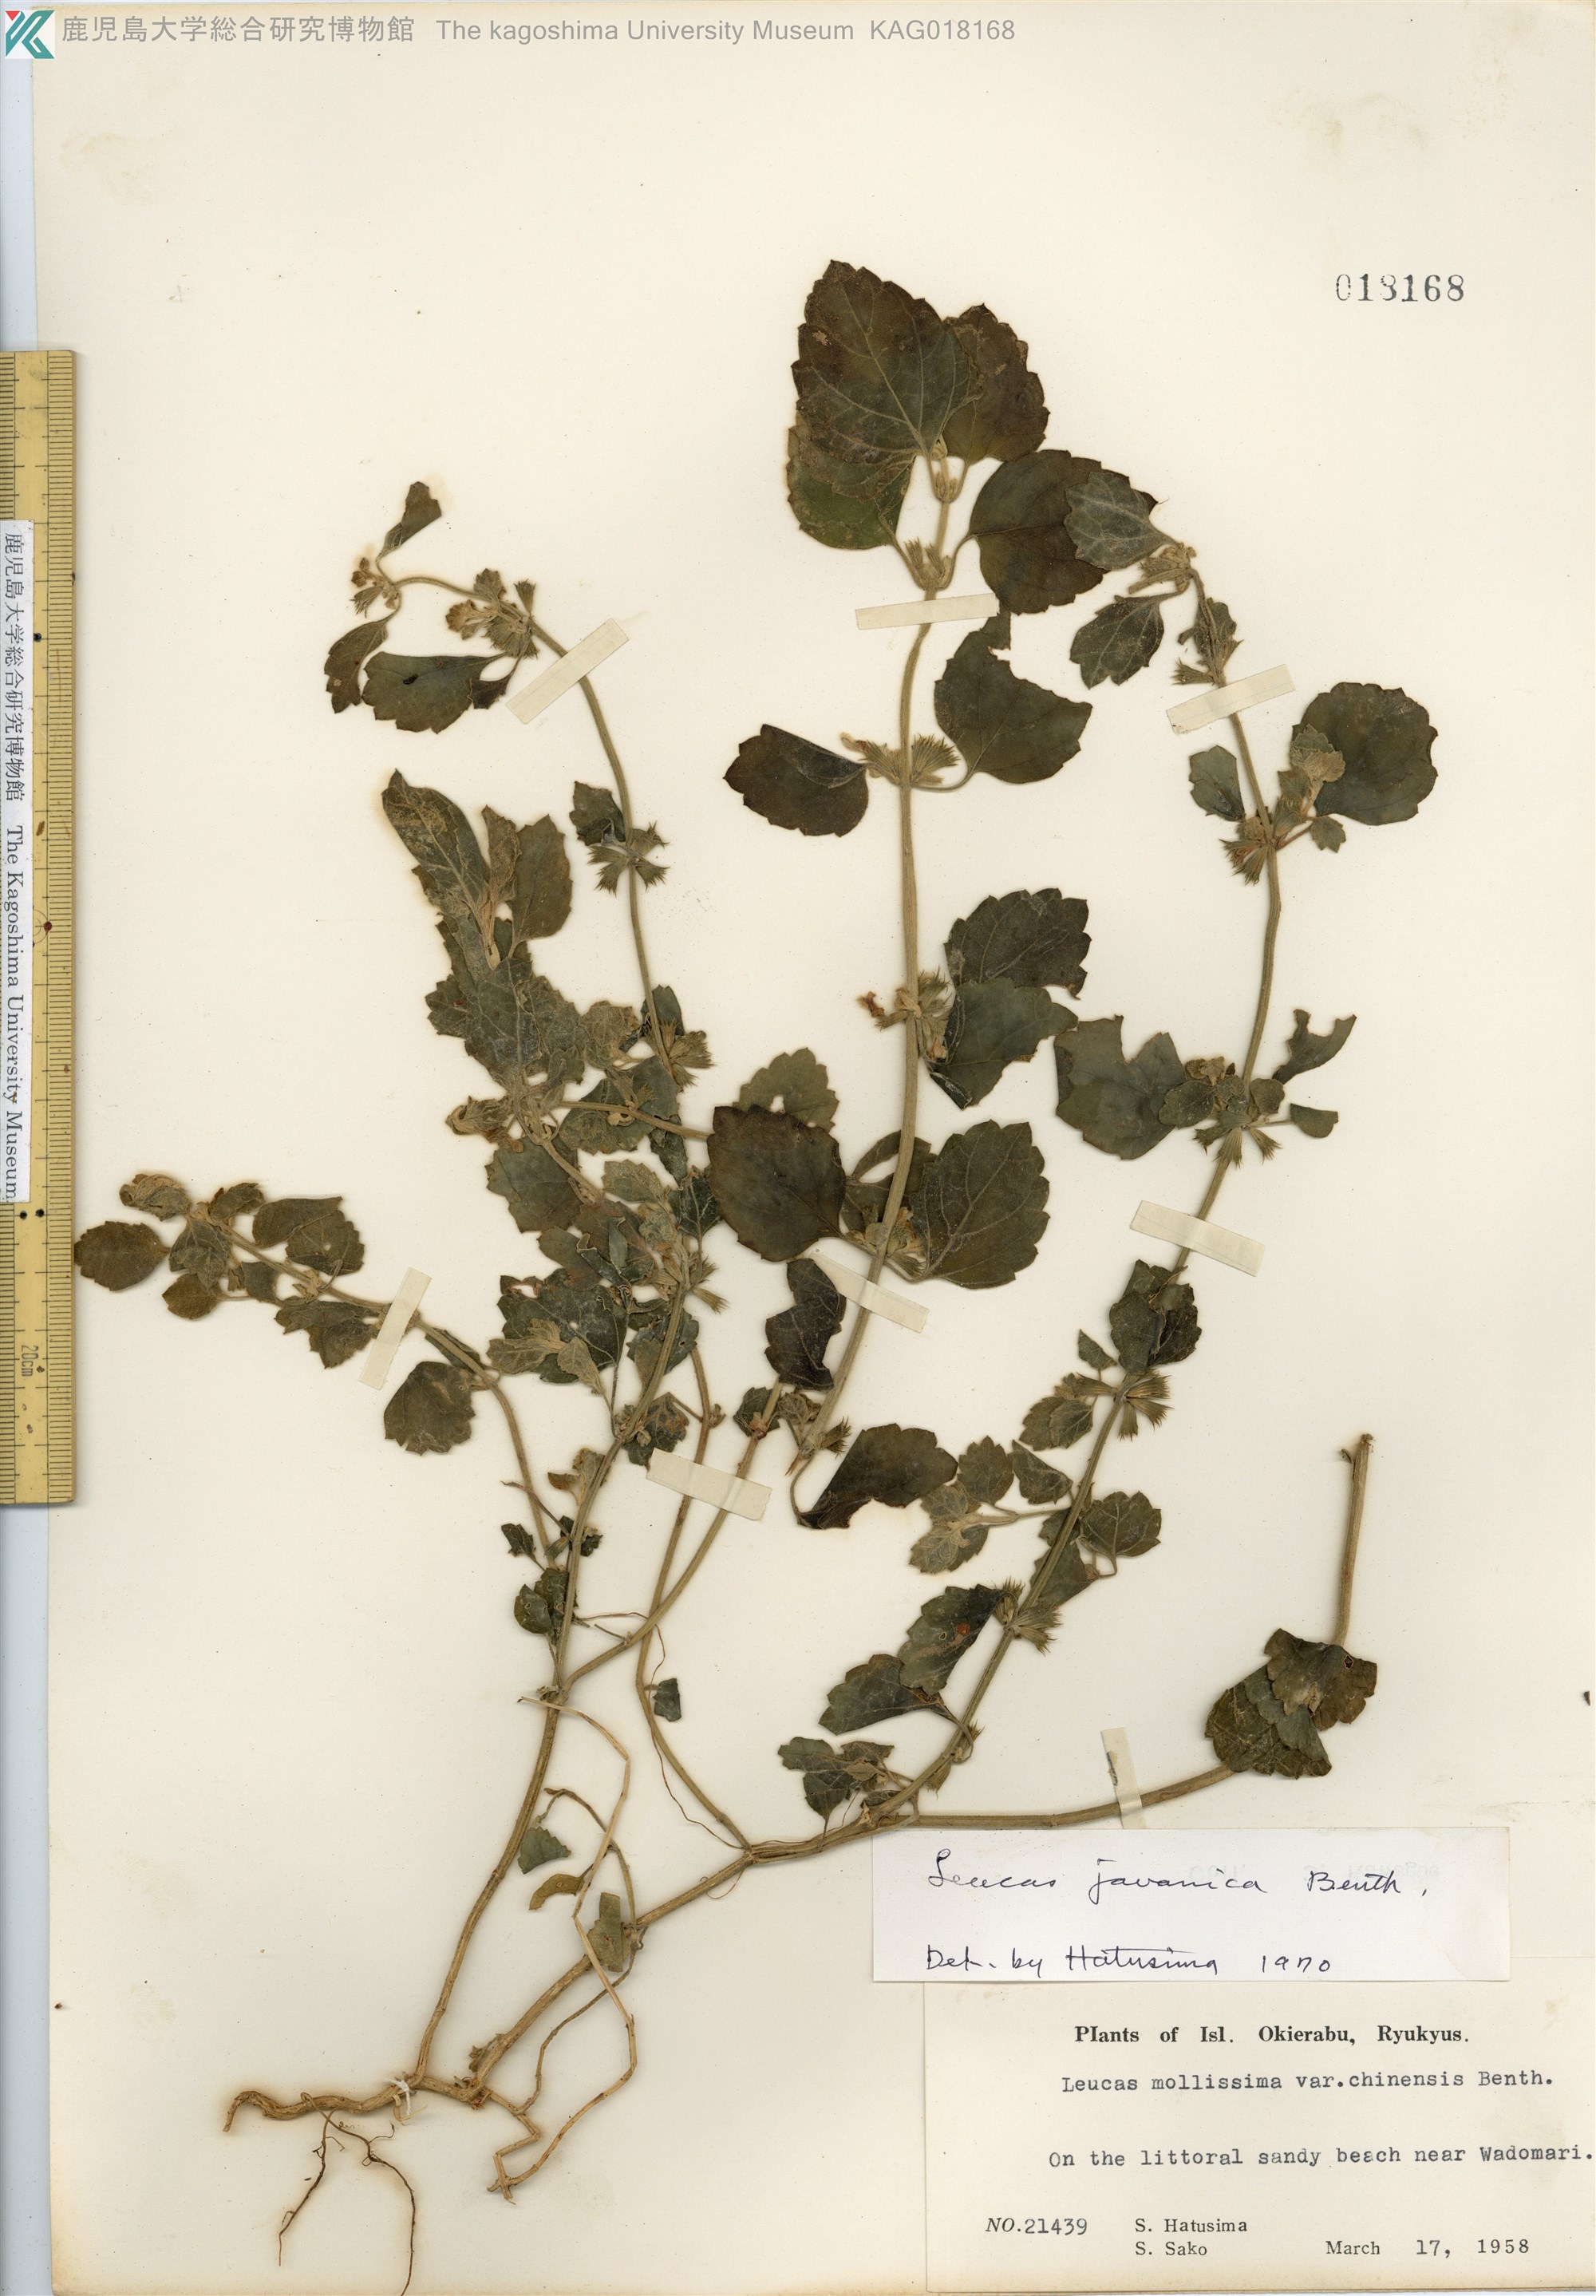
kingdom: Plantae
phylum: Tracheophyta
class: Magnoliopsida
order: Lamiales
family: Lamiaceae
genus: Leucas
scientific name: Leucas chinensis
